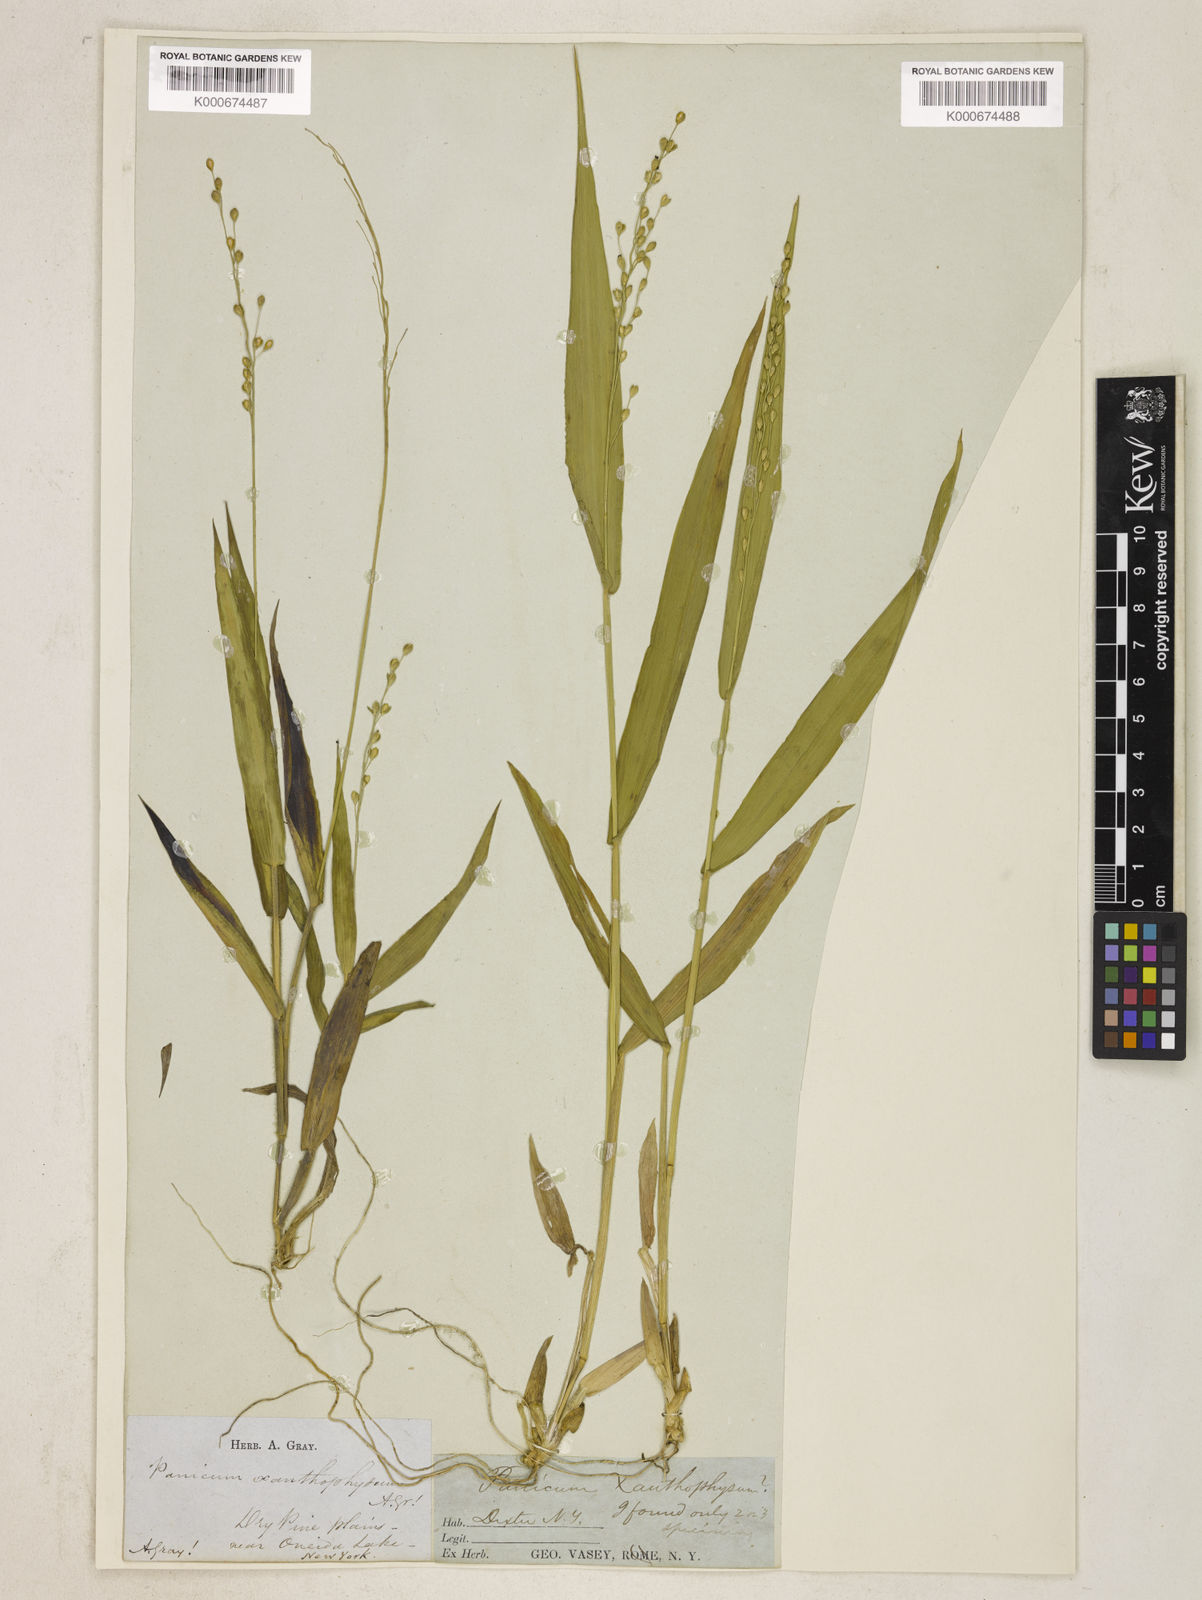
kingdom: Plantae
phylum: Tracheophyta
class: Liliopsida
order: Poales
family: Poaceae
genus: Dichanthelium
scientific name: Dichanthelium xanthophysum
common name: Pale panicgrass
